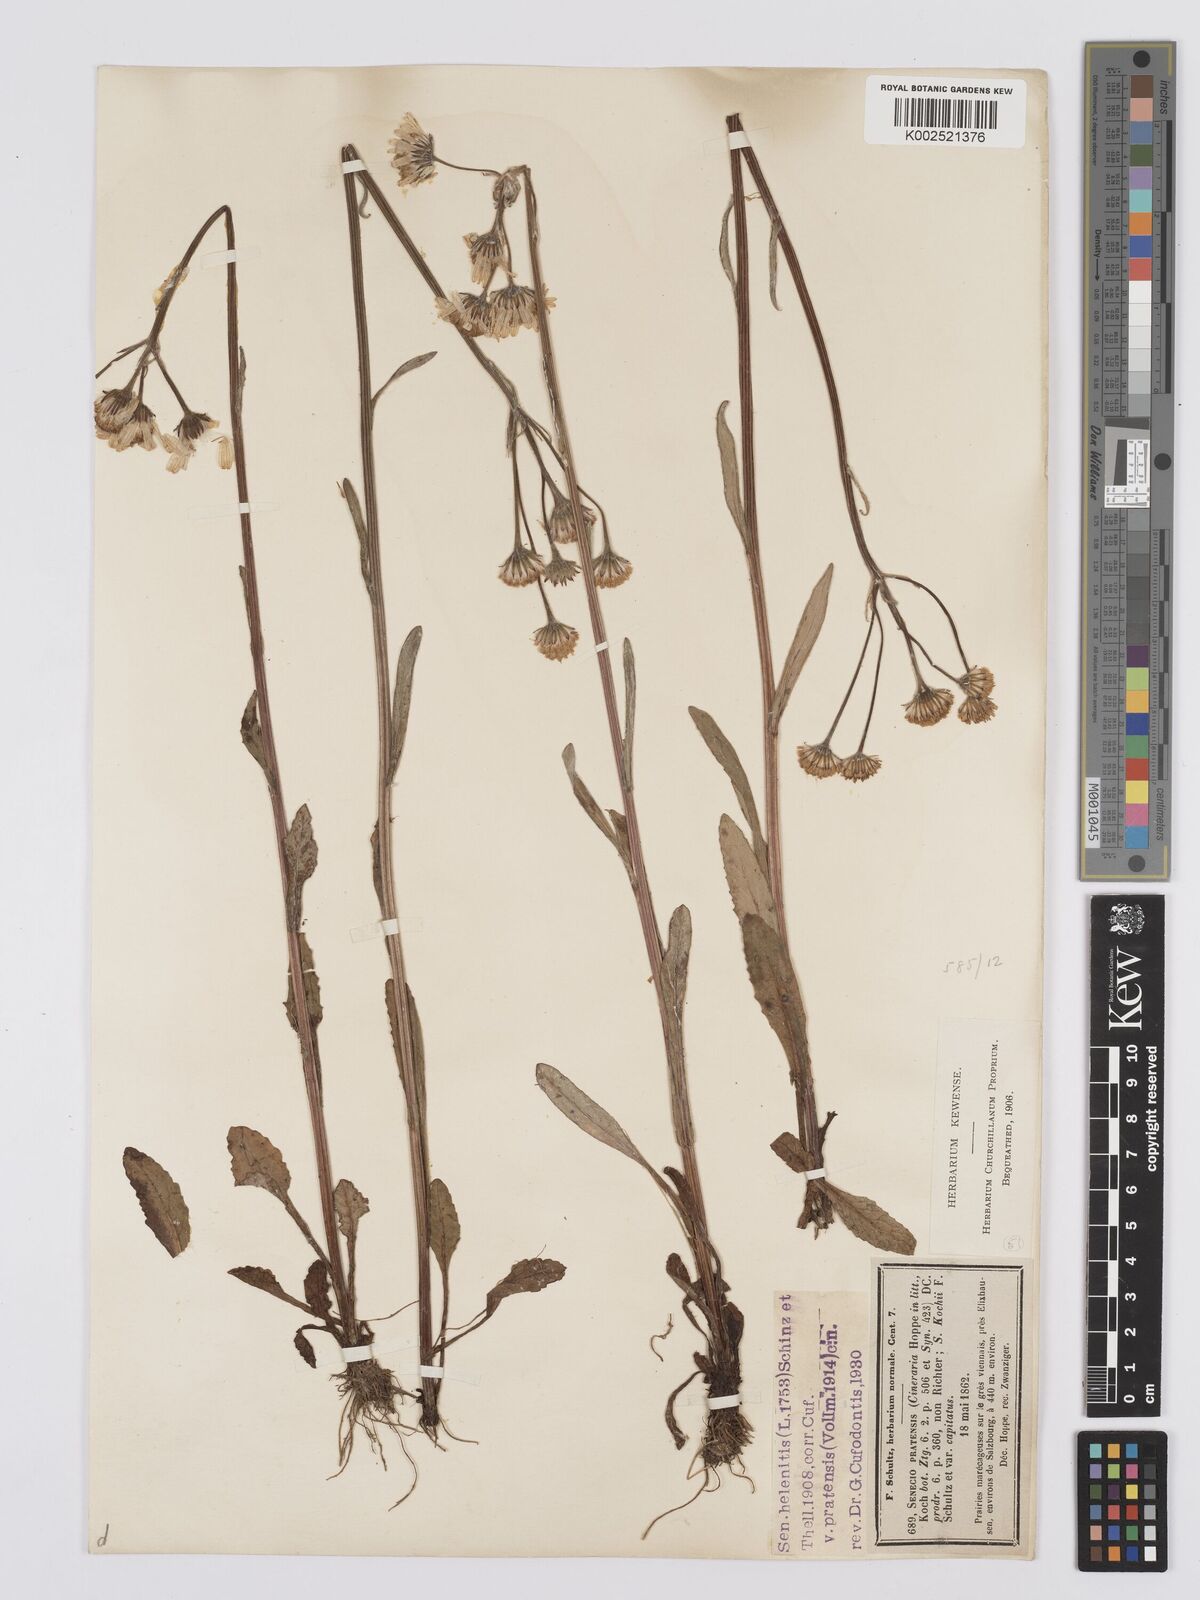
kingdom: Plantae
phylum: Tracheophyta
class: Magnoliopsida
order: Asterales
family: Asteraceae
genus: Tephroseris
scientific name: Tephroseris helenitis
